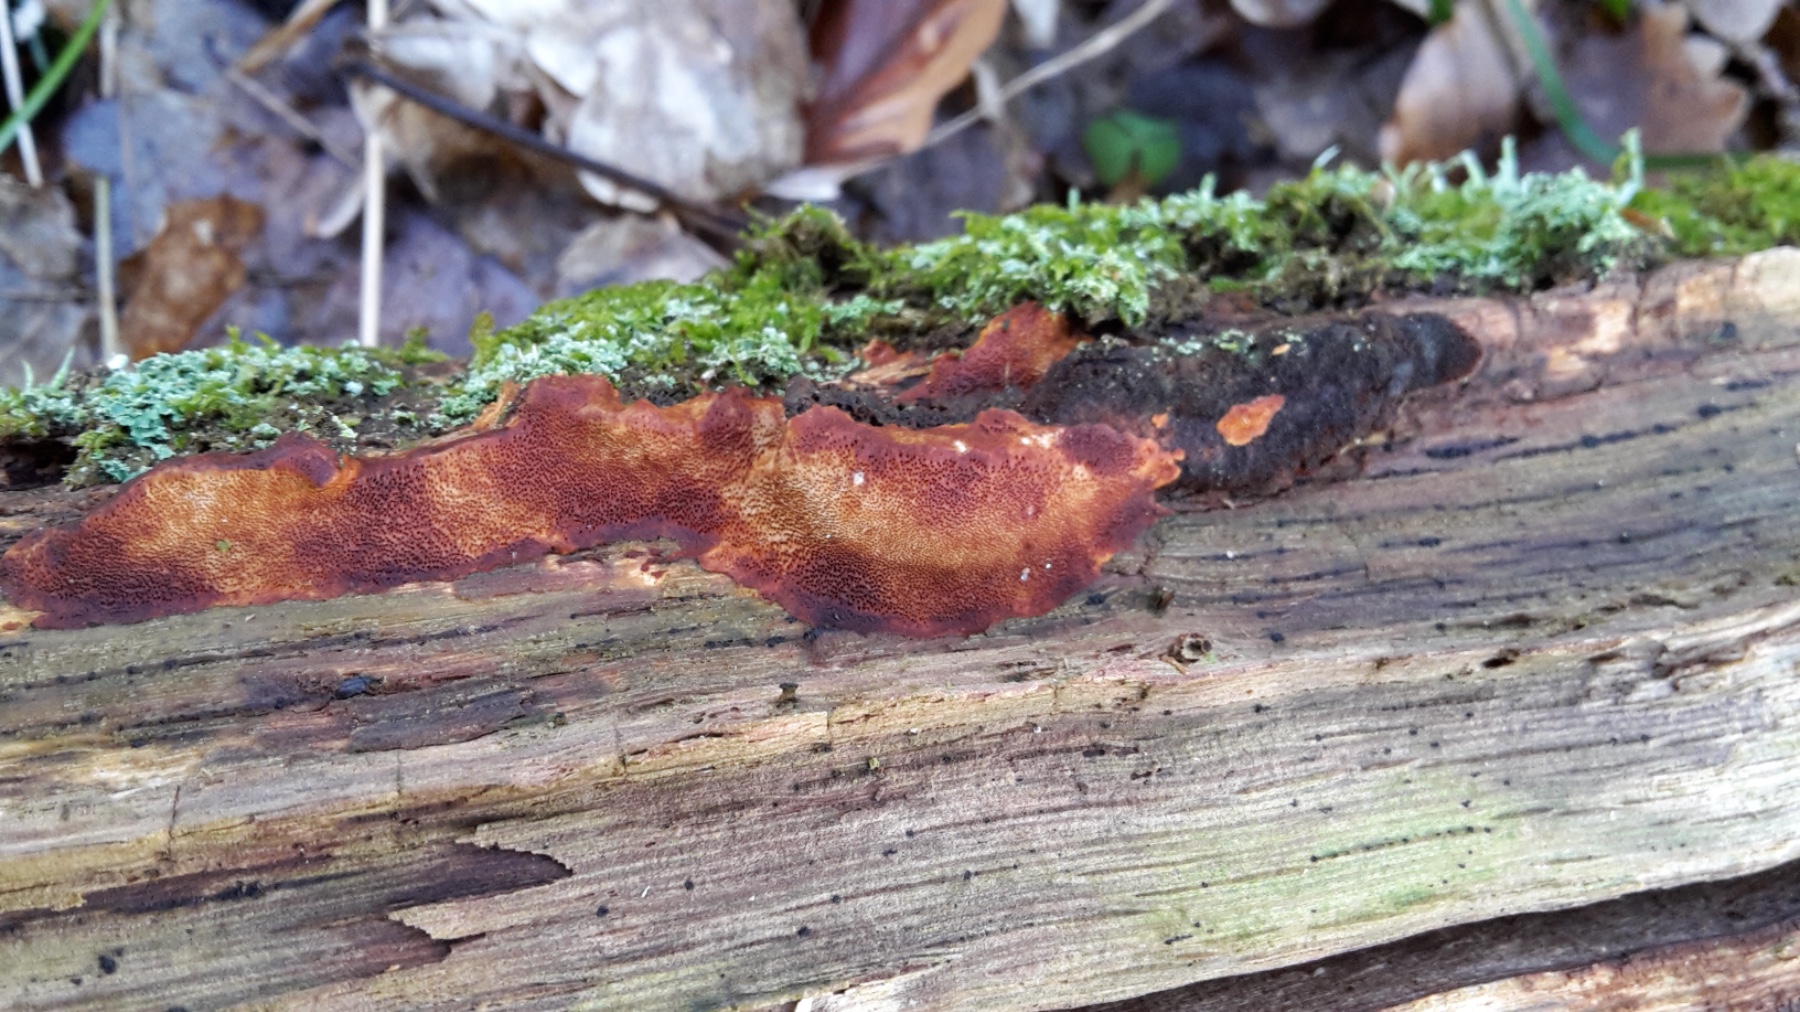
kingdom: Fungi
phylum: Basidiomycota
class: Agaricomycetes
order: Hymenochaetales
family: Hymenochaetaceae
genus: Fuscoporia
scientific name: Fuscoporia ferrea
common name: skorpe-ildporesvamp
